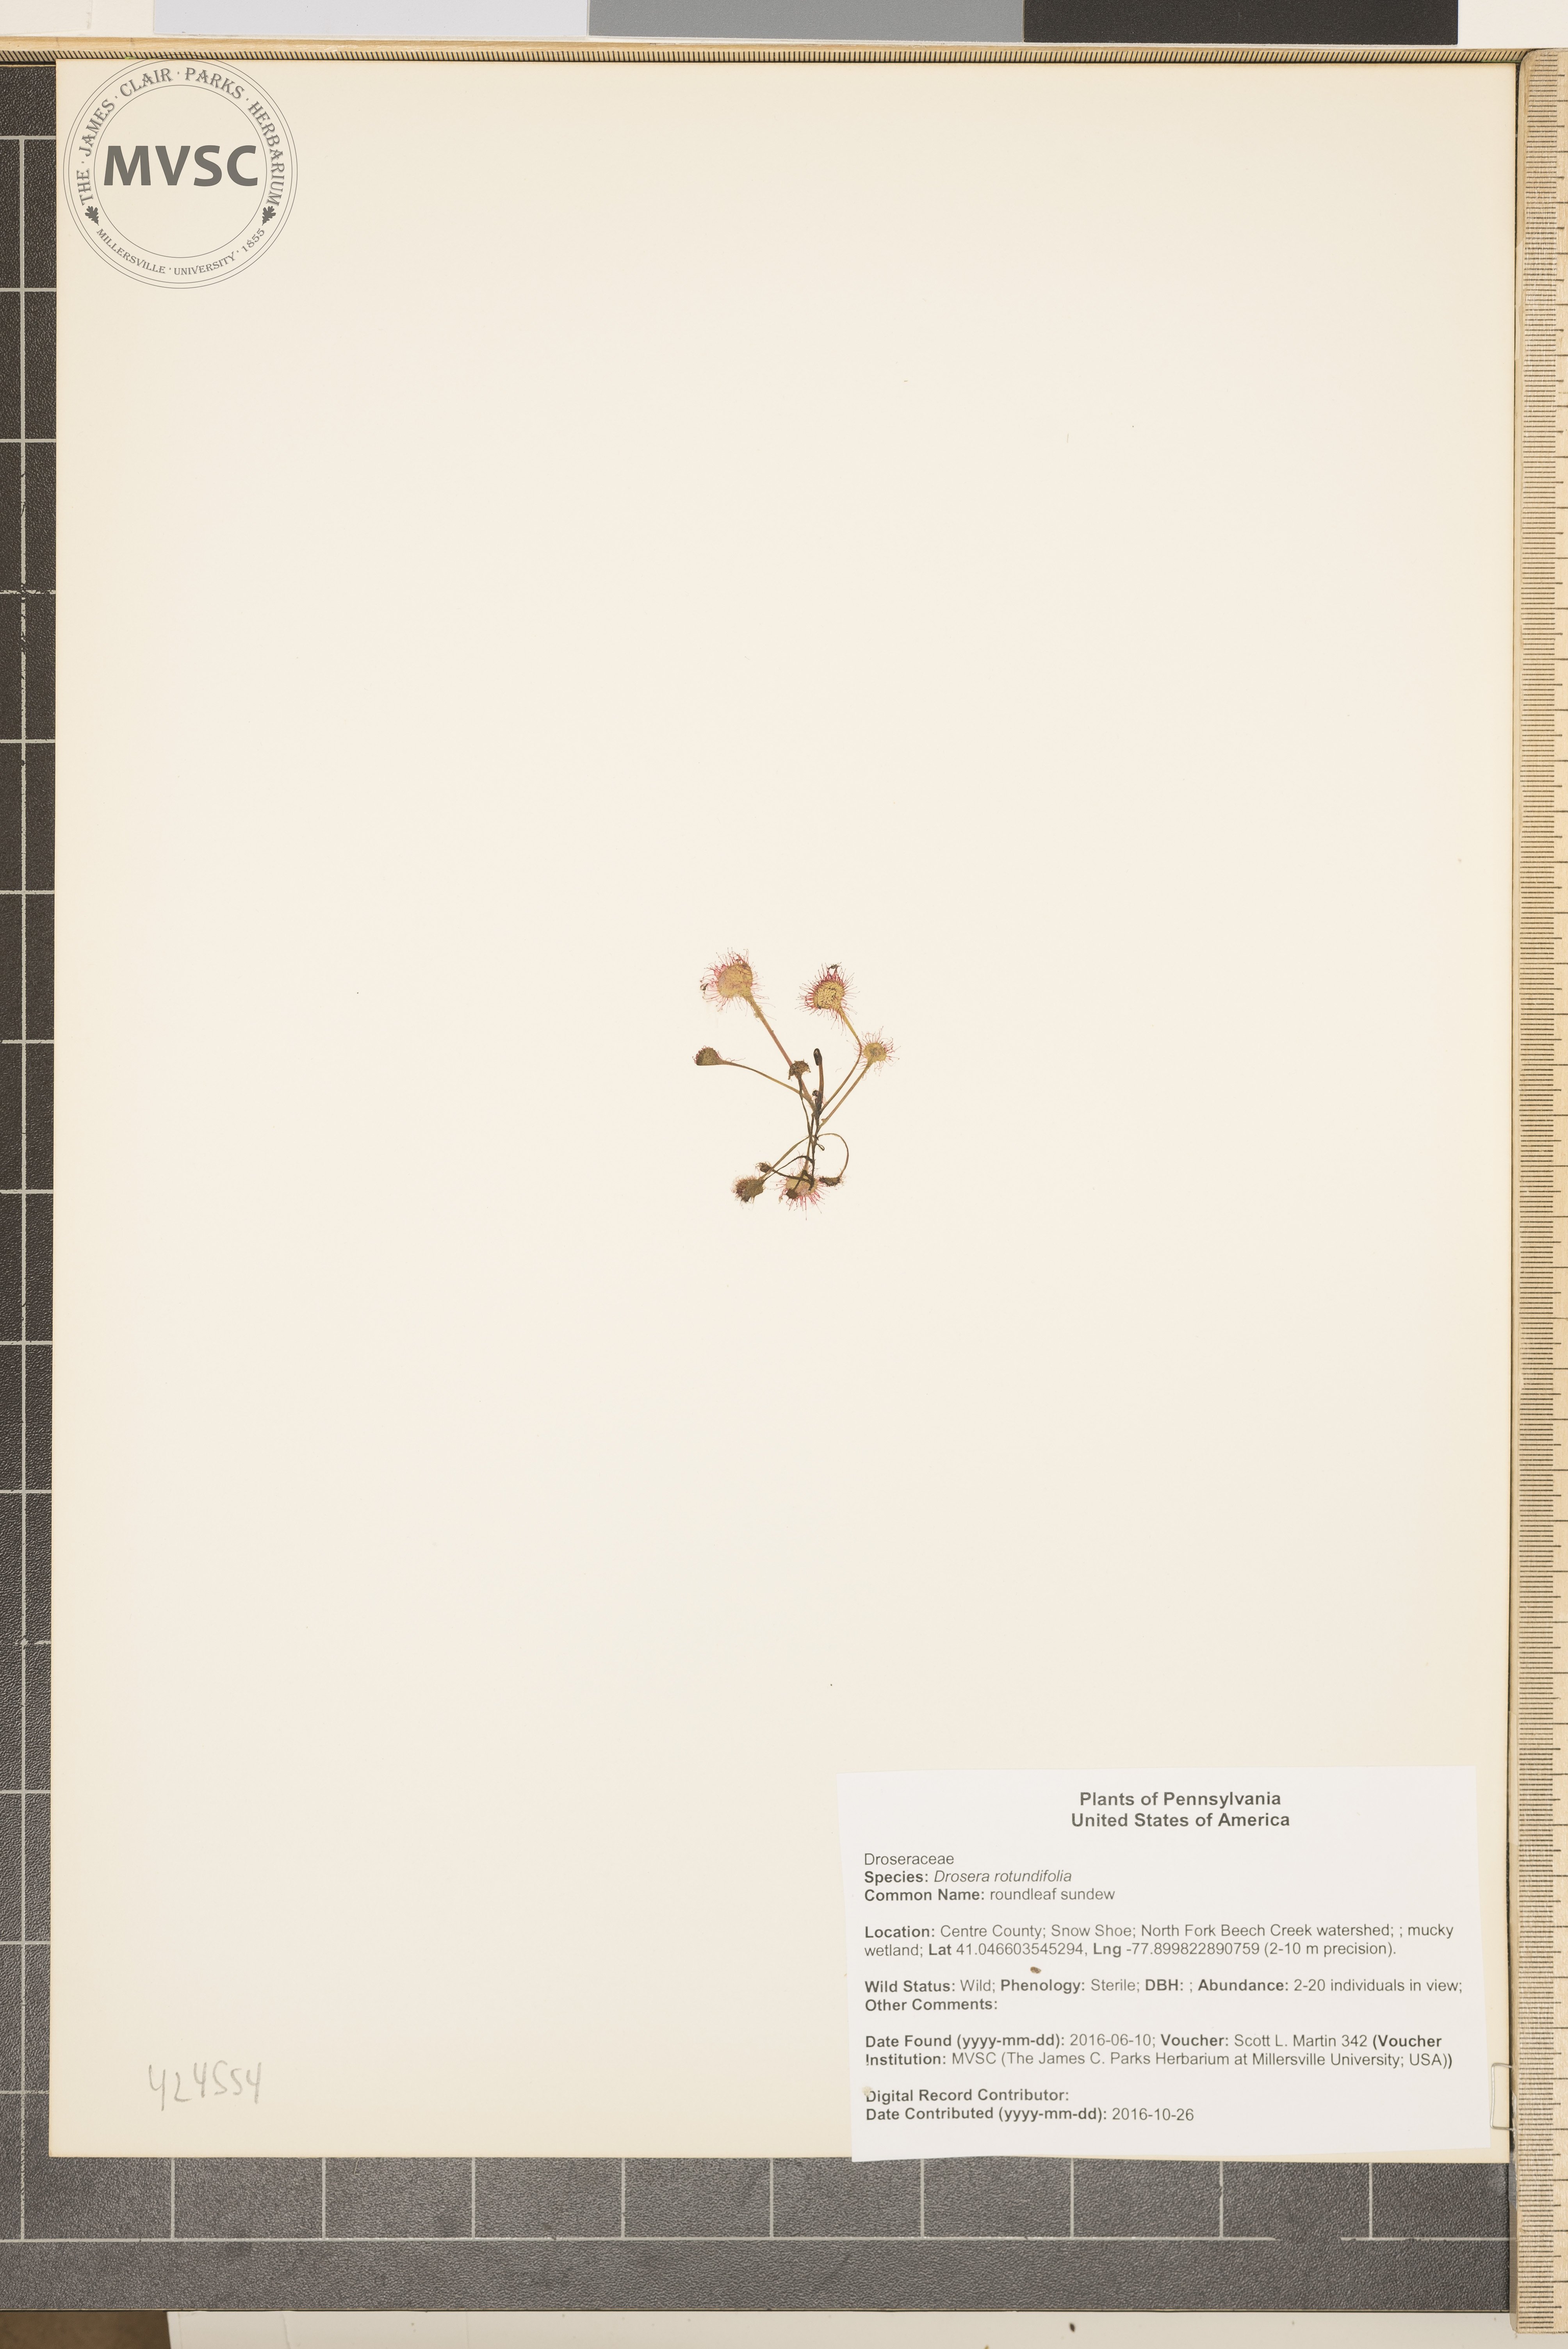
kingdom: Plantae
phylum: Tracheophyta
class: Magnoliopsida
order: Caryophyllales
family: Droseraceae
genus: Drosera
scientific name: Drosera rotundifolia
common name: roundleaf sundew
